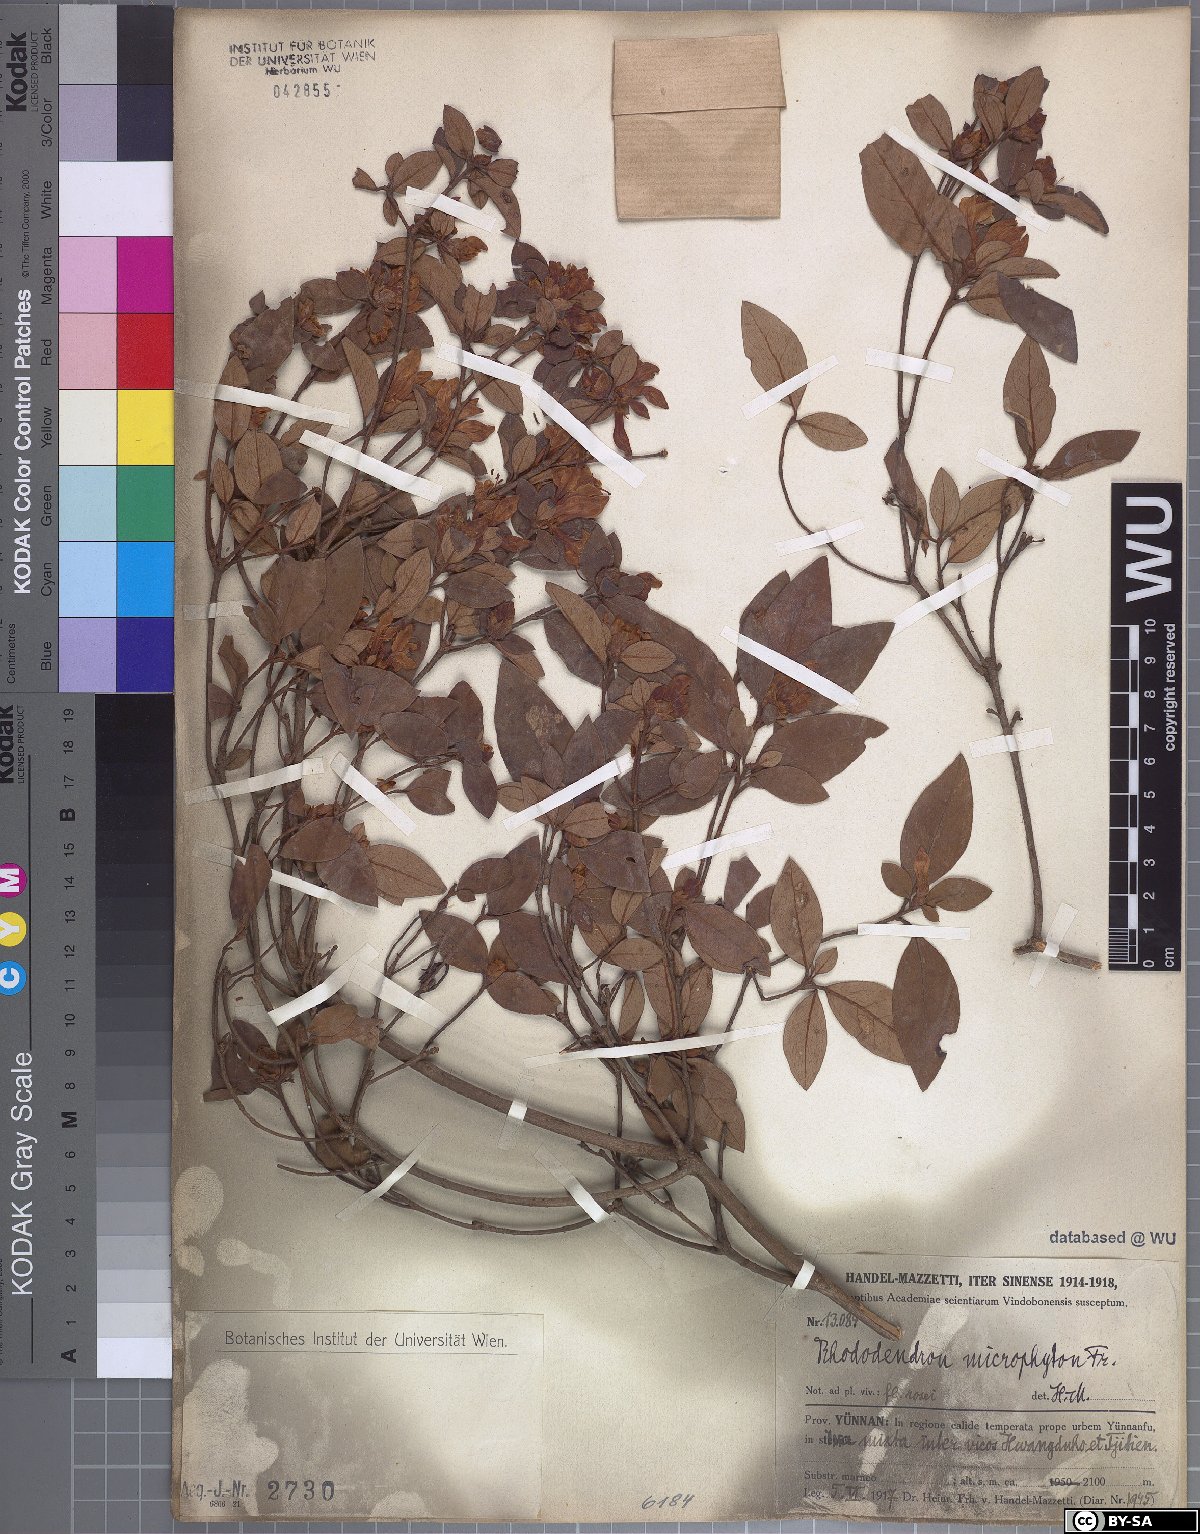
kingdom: Plantae
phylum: Tracheophyta
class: Magnoliopsida
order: Ericales
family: Ericaceae
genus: Rhododendron
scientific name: Rhododendron microphyton
